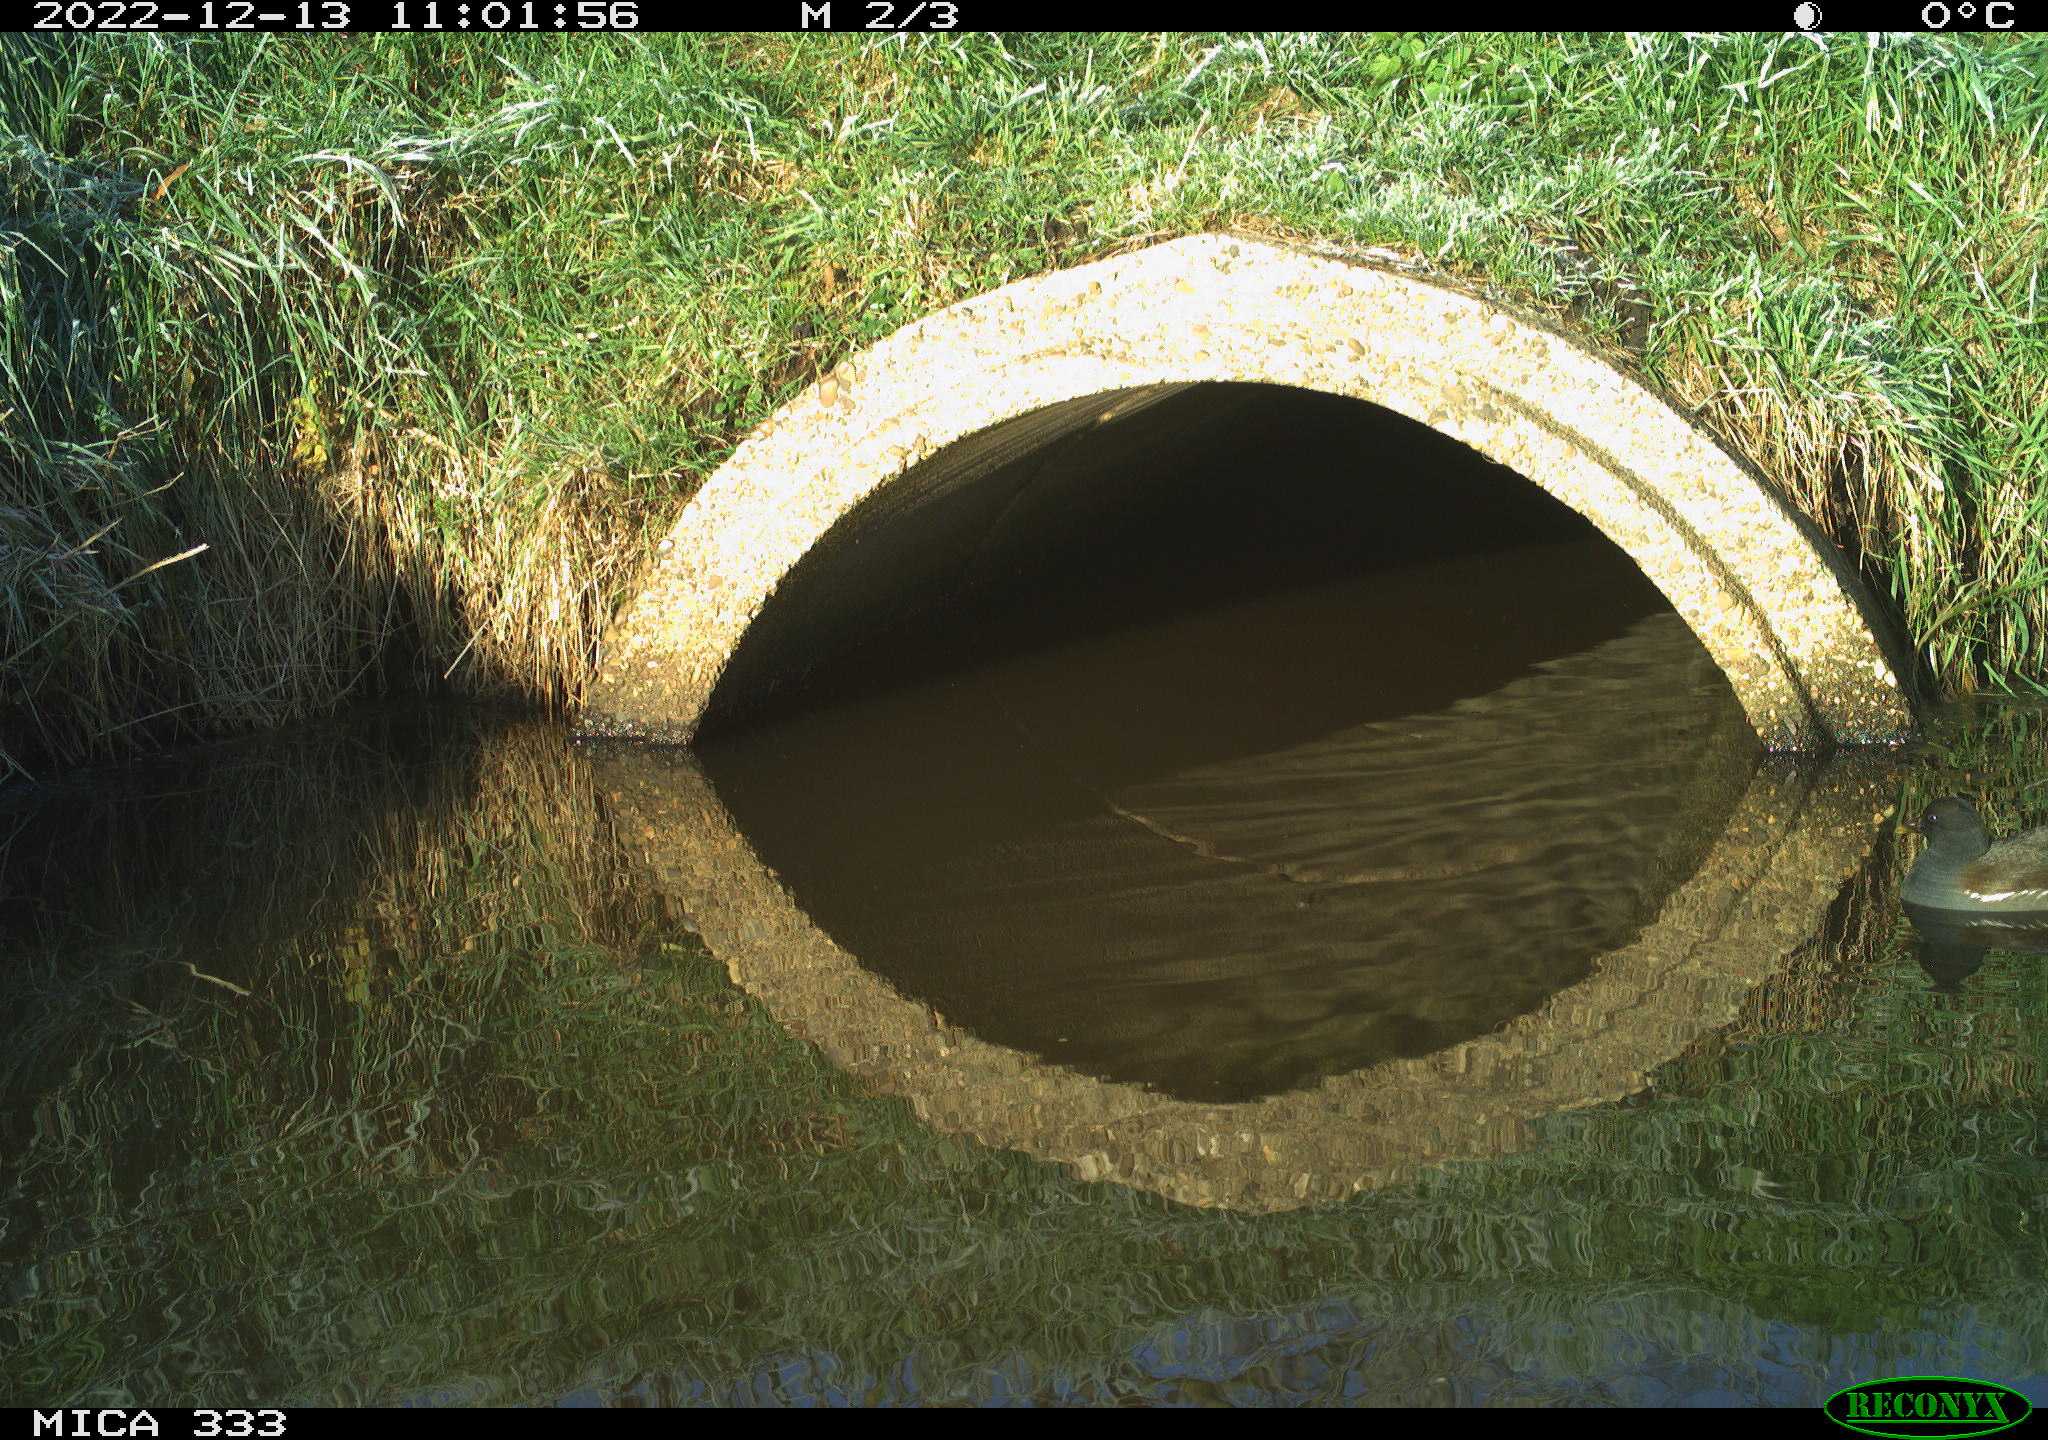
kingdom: Animalia
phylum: Chordata
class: Aves
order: Gruiformes
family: Rallidae
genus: Gallinula
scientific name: Gallinula chloropus
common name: Common moorhen
